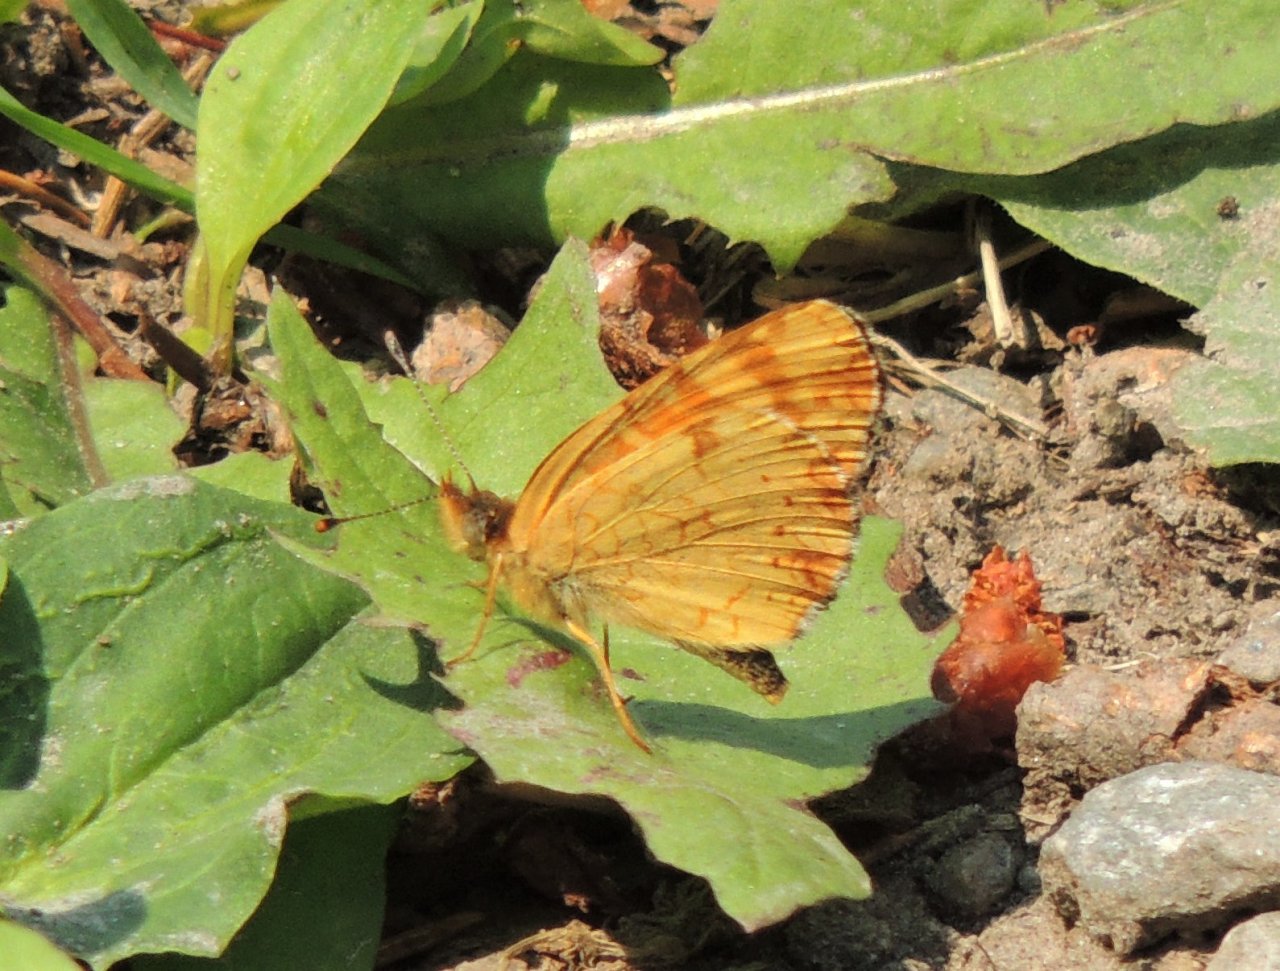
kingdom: Animalia
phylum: Arthropoda
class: Insecta
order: Lepidoptera
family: Nymphalidae
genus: Phyciodes
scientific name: Phyciodes tharos
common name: Field Crescent
